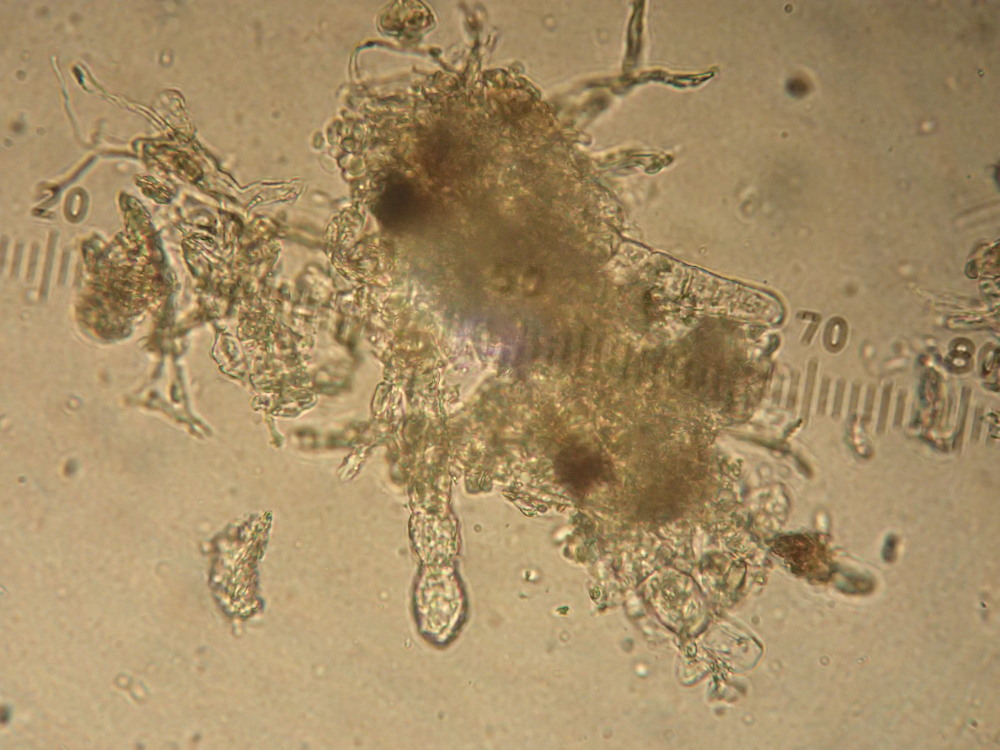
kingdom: Fungi
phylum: Ascomycota
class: Leotiomycetes
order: Helotiales
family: Erysiphaceae
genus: Podosphaera
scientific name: Podosphaera balsaminae
